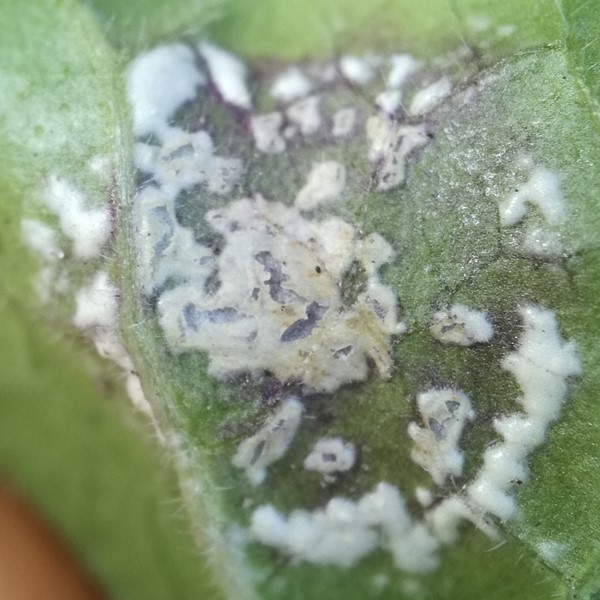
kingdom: Chromista
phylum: Oomycota
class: Peronosporea
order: Peronosporales
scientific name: Peronosporales
